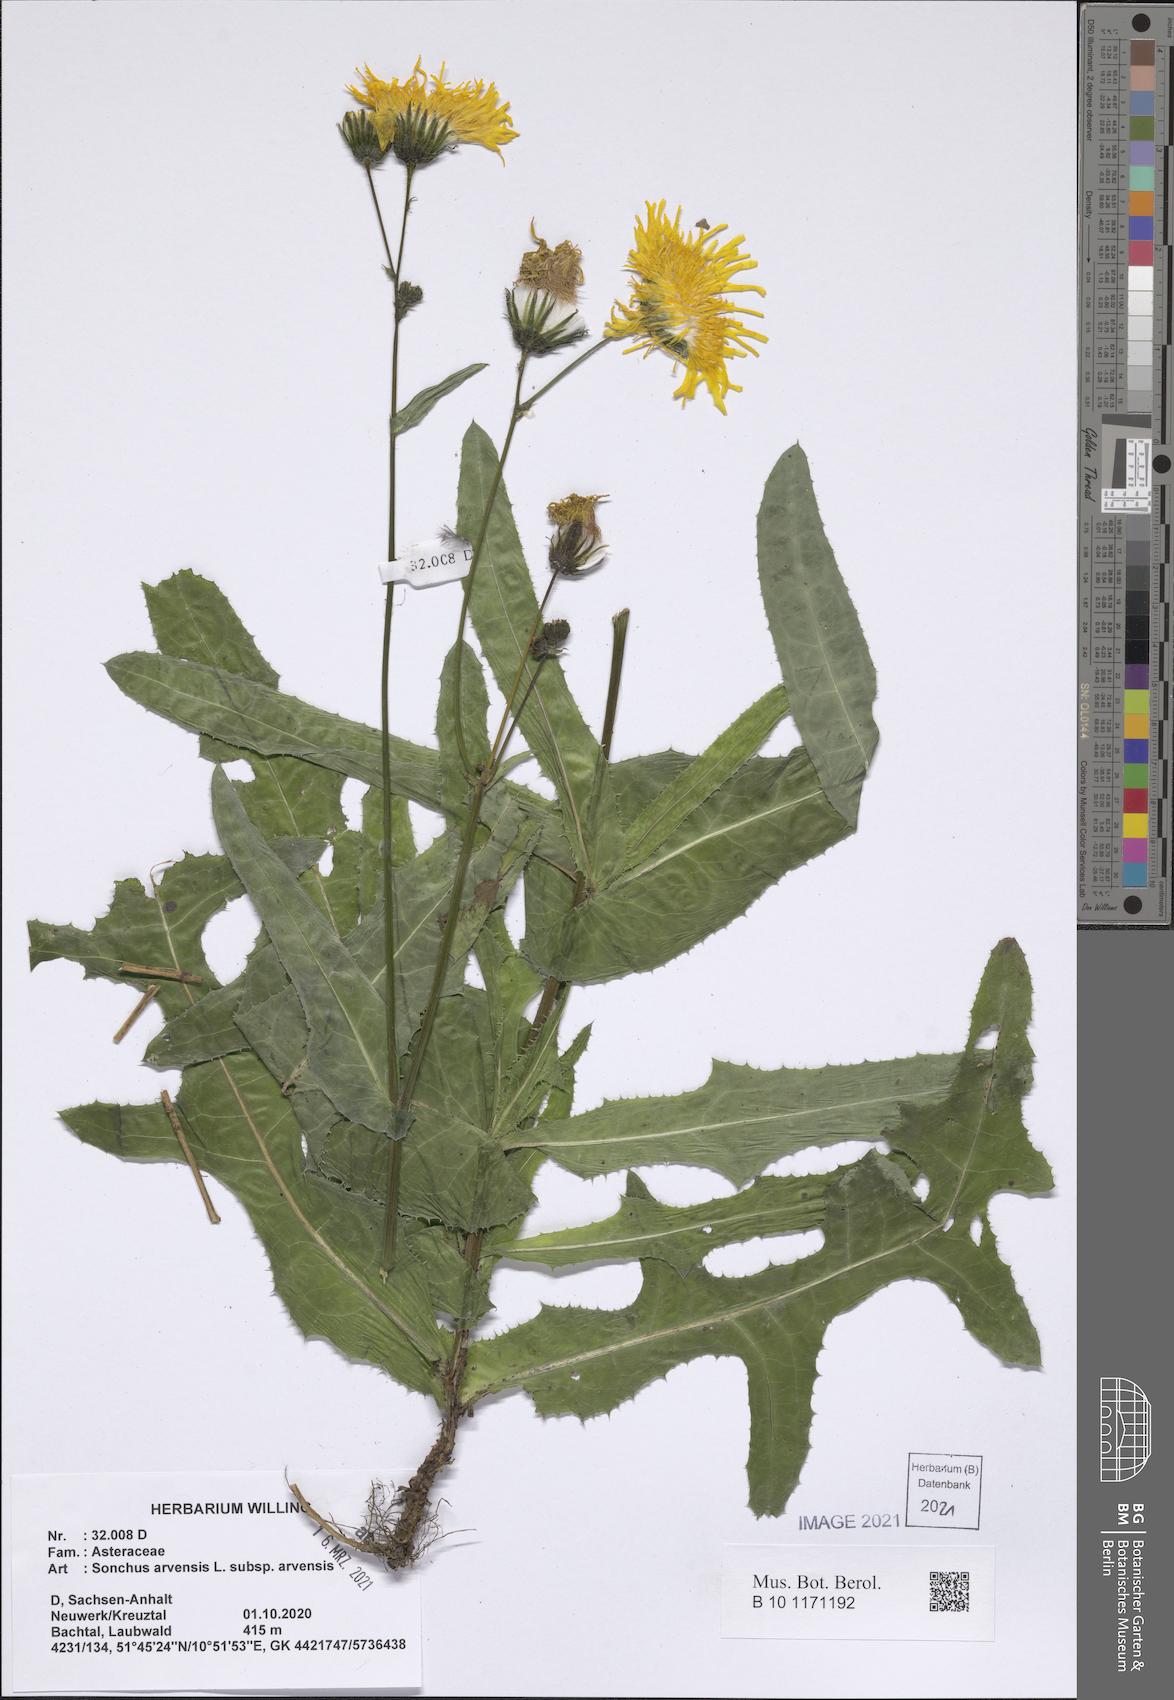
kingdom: Plantae
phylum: Tracheophyta
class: Magnoliopsida
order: Asterales
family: Asteraceae
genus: Sonchus
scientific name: Sonchus arvensis
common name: Perennial sow-thistle
